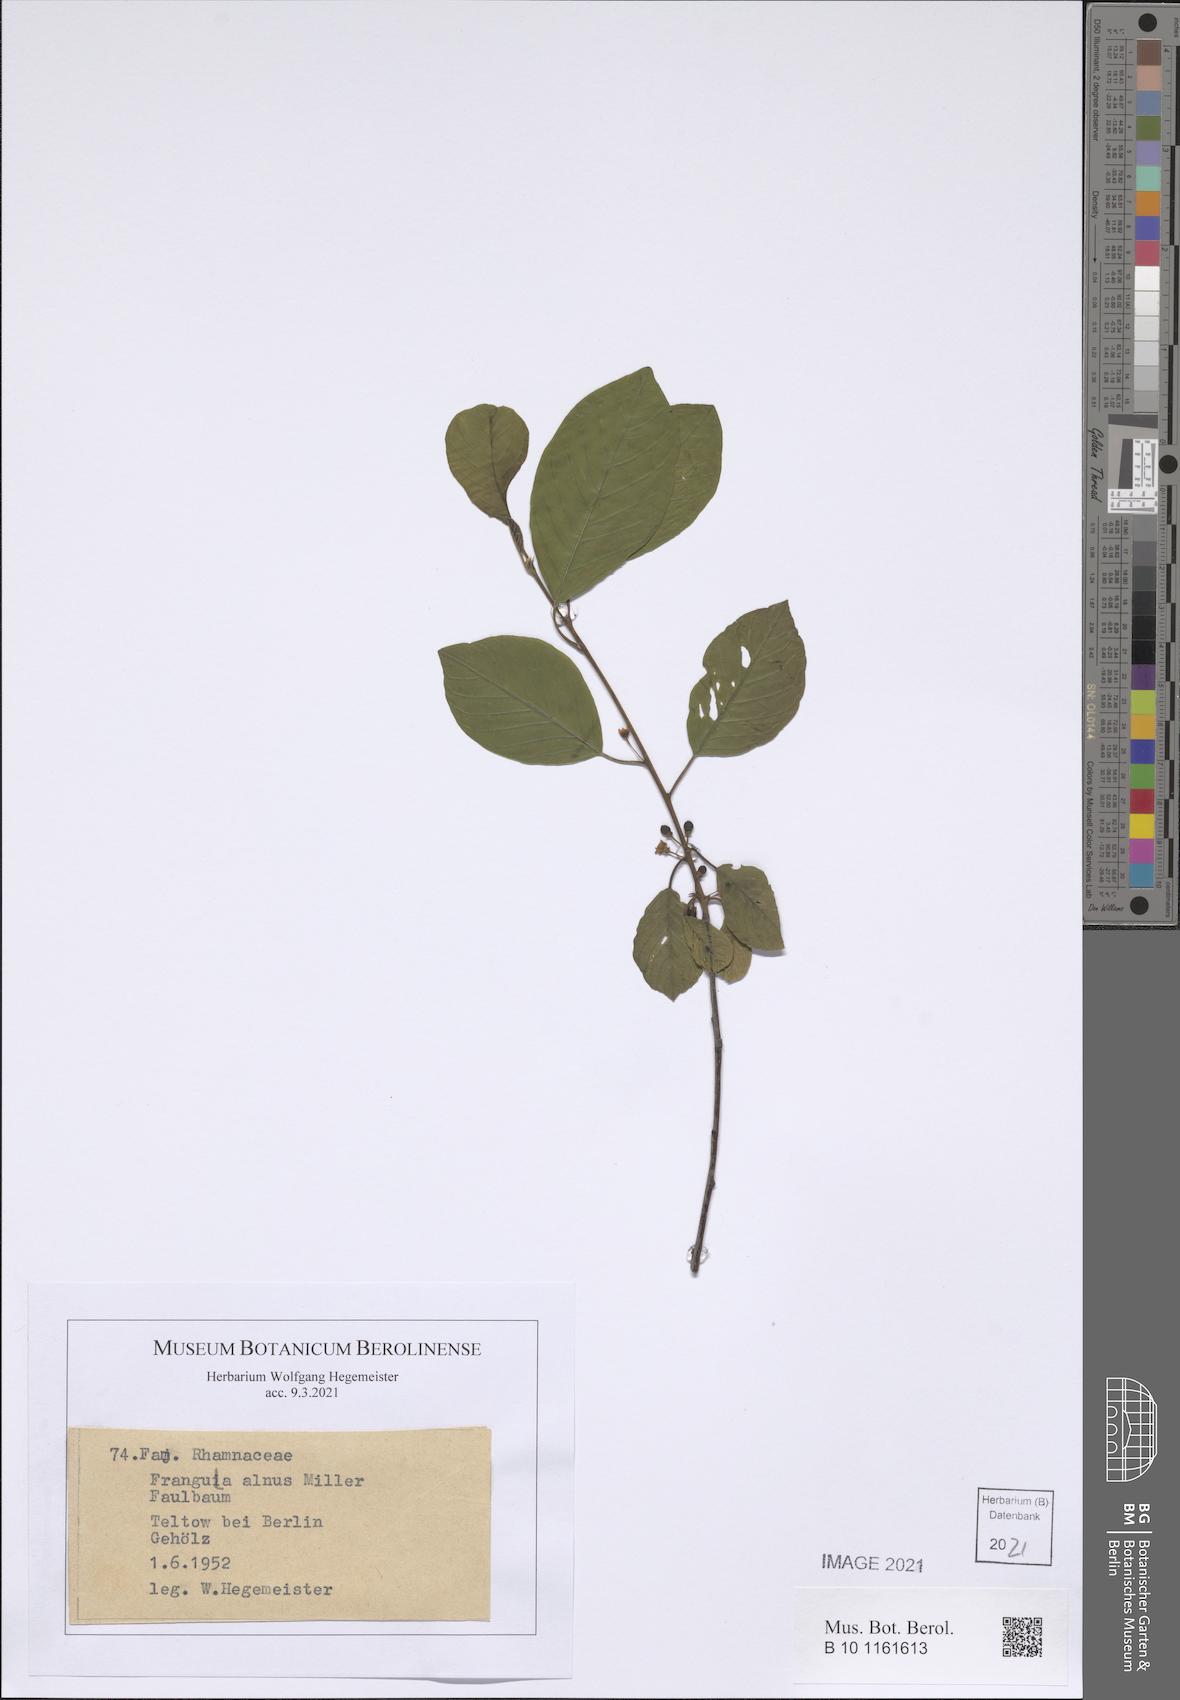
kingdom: Plantae
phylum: Tracheophyta
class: Magnoliopsida
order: Rosales
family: Rhamnaceae
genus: Frangula
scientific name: Frangula alnus
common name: Alder buckthorn
